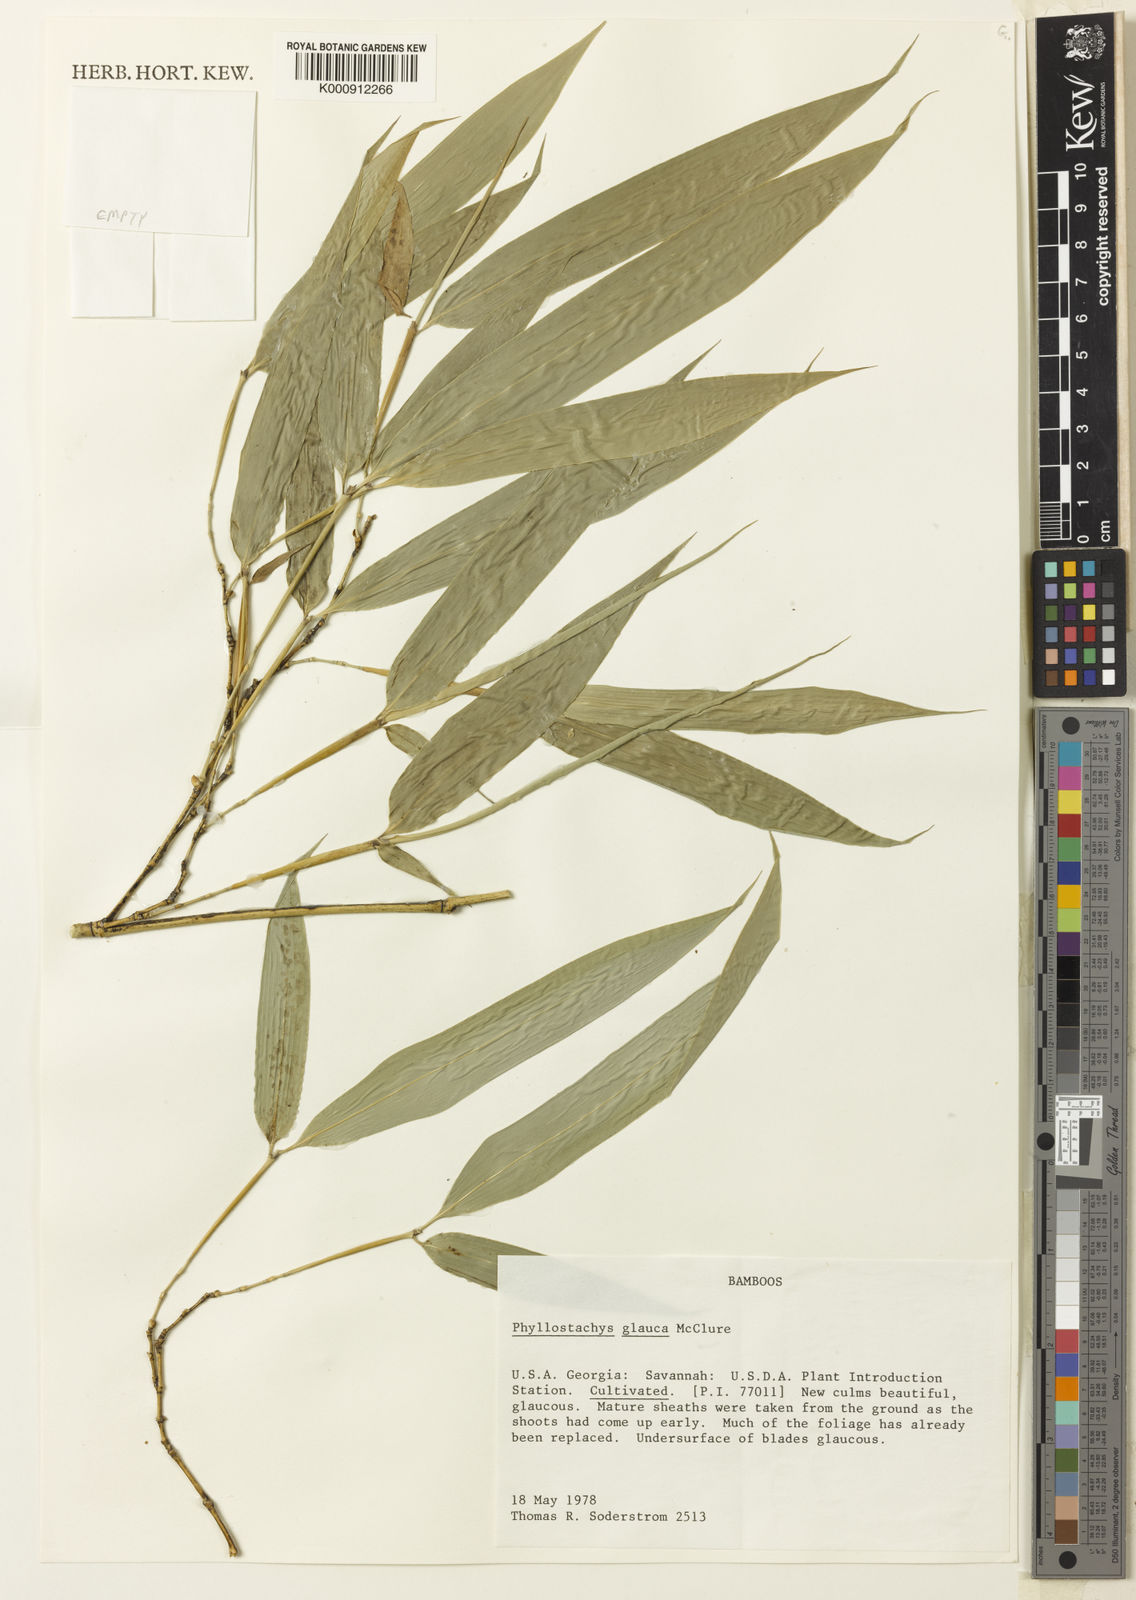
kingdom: Plantae
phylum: Tracheophyta
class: Liliopsida
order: Poales
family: Poaceae
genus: Phyllostachys
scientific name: Phyllostachys glauca
